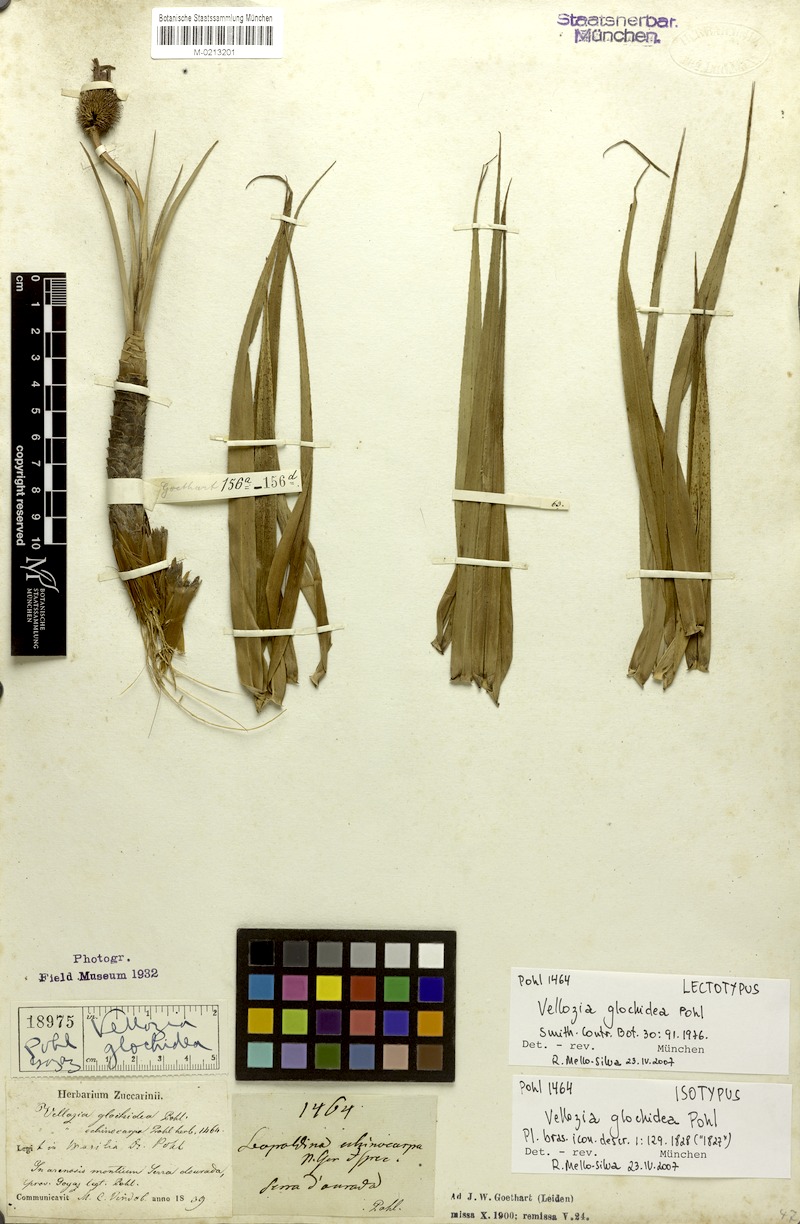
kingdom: Plantae
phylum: Tracheophyta
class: Liliopsida
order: Pandanales
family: Velloziaceae
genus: Vellozia
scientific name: Vellozia glochidea
